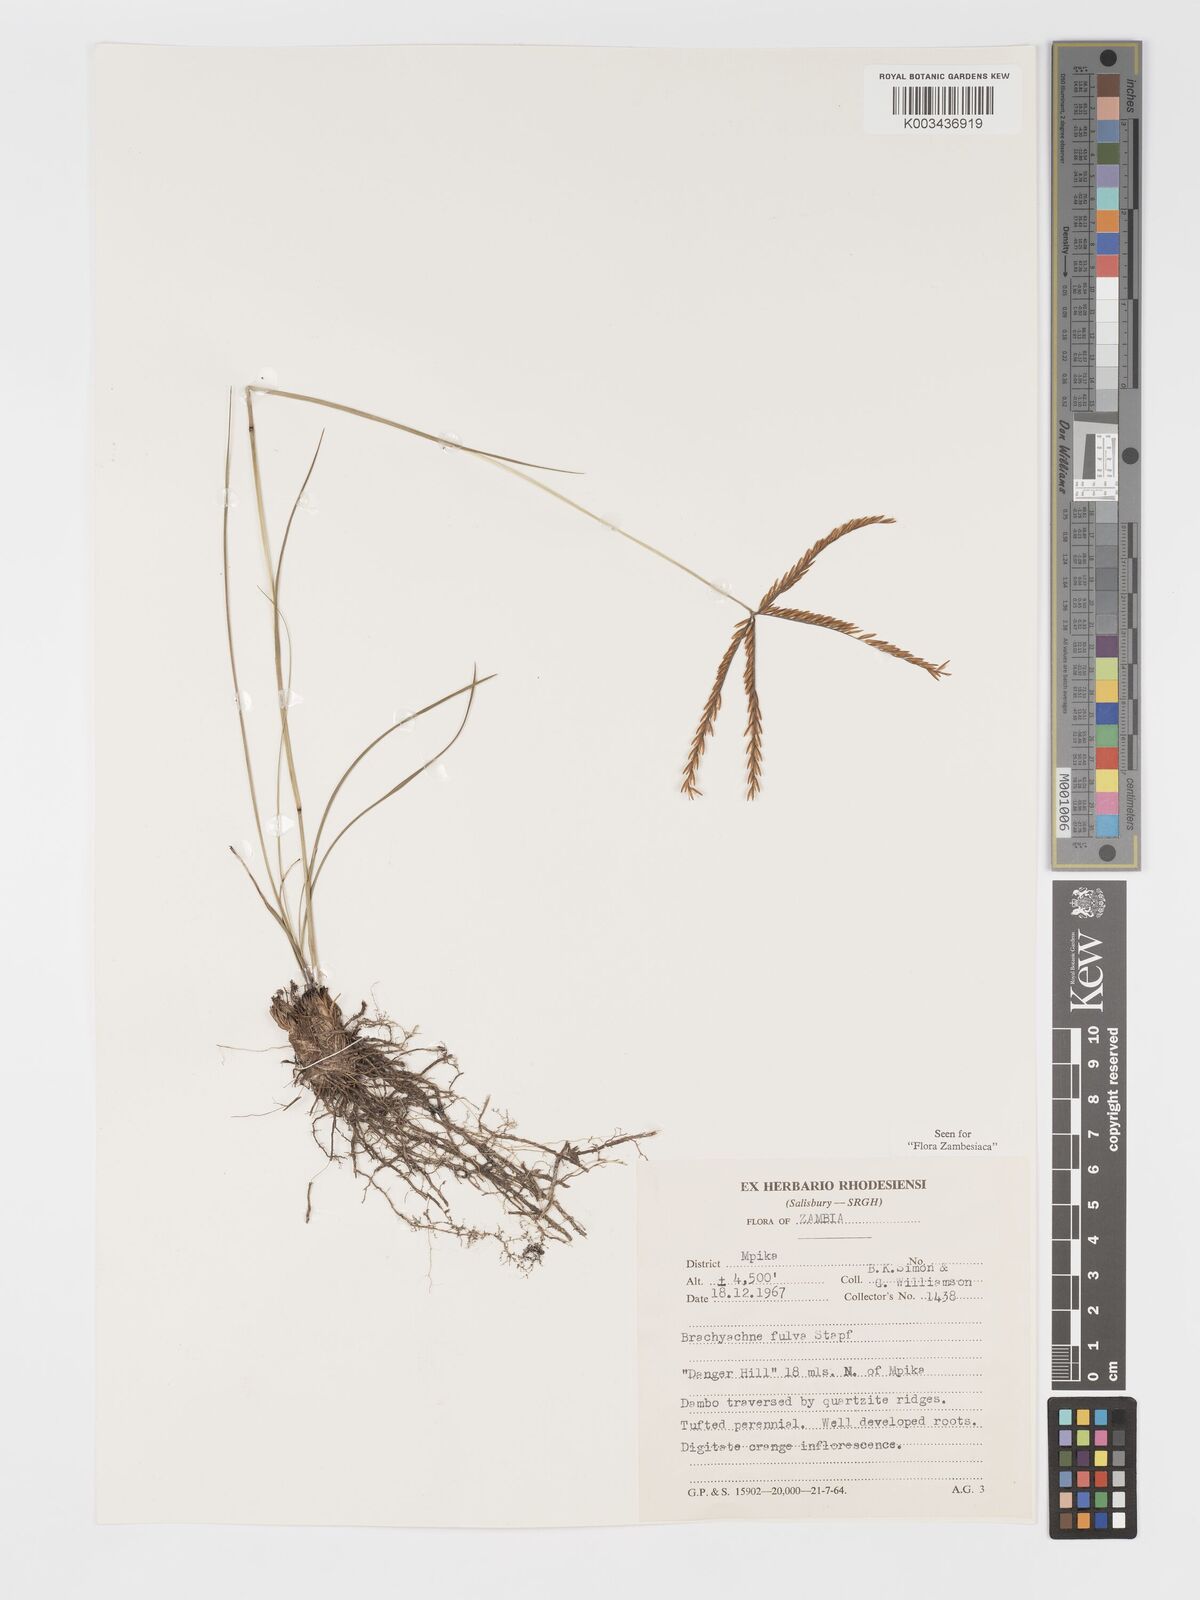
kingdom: Plantae
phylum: Tracheophyta
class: Liliopsida
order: Poales
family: Poaceae
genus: Micrachne
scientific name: Micrachne fulva
